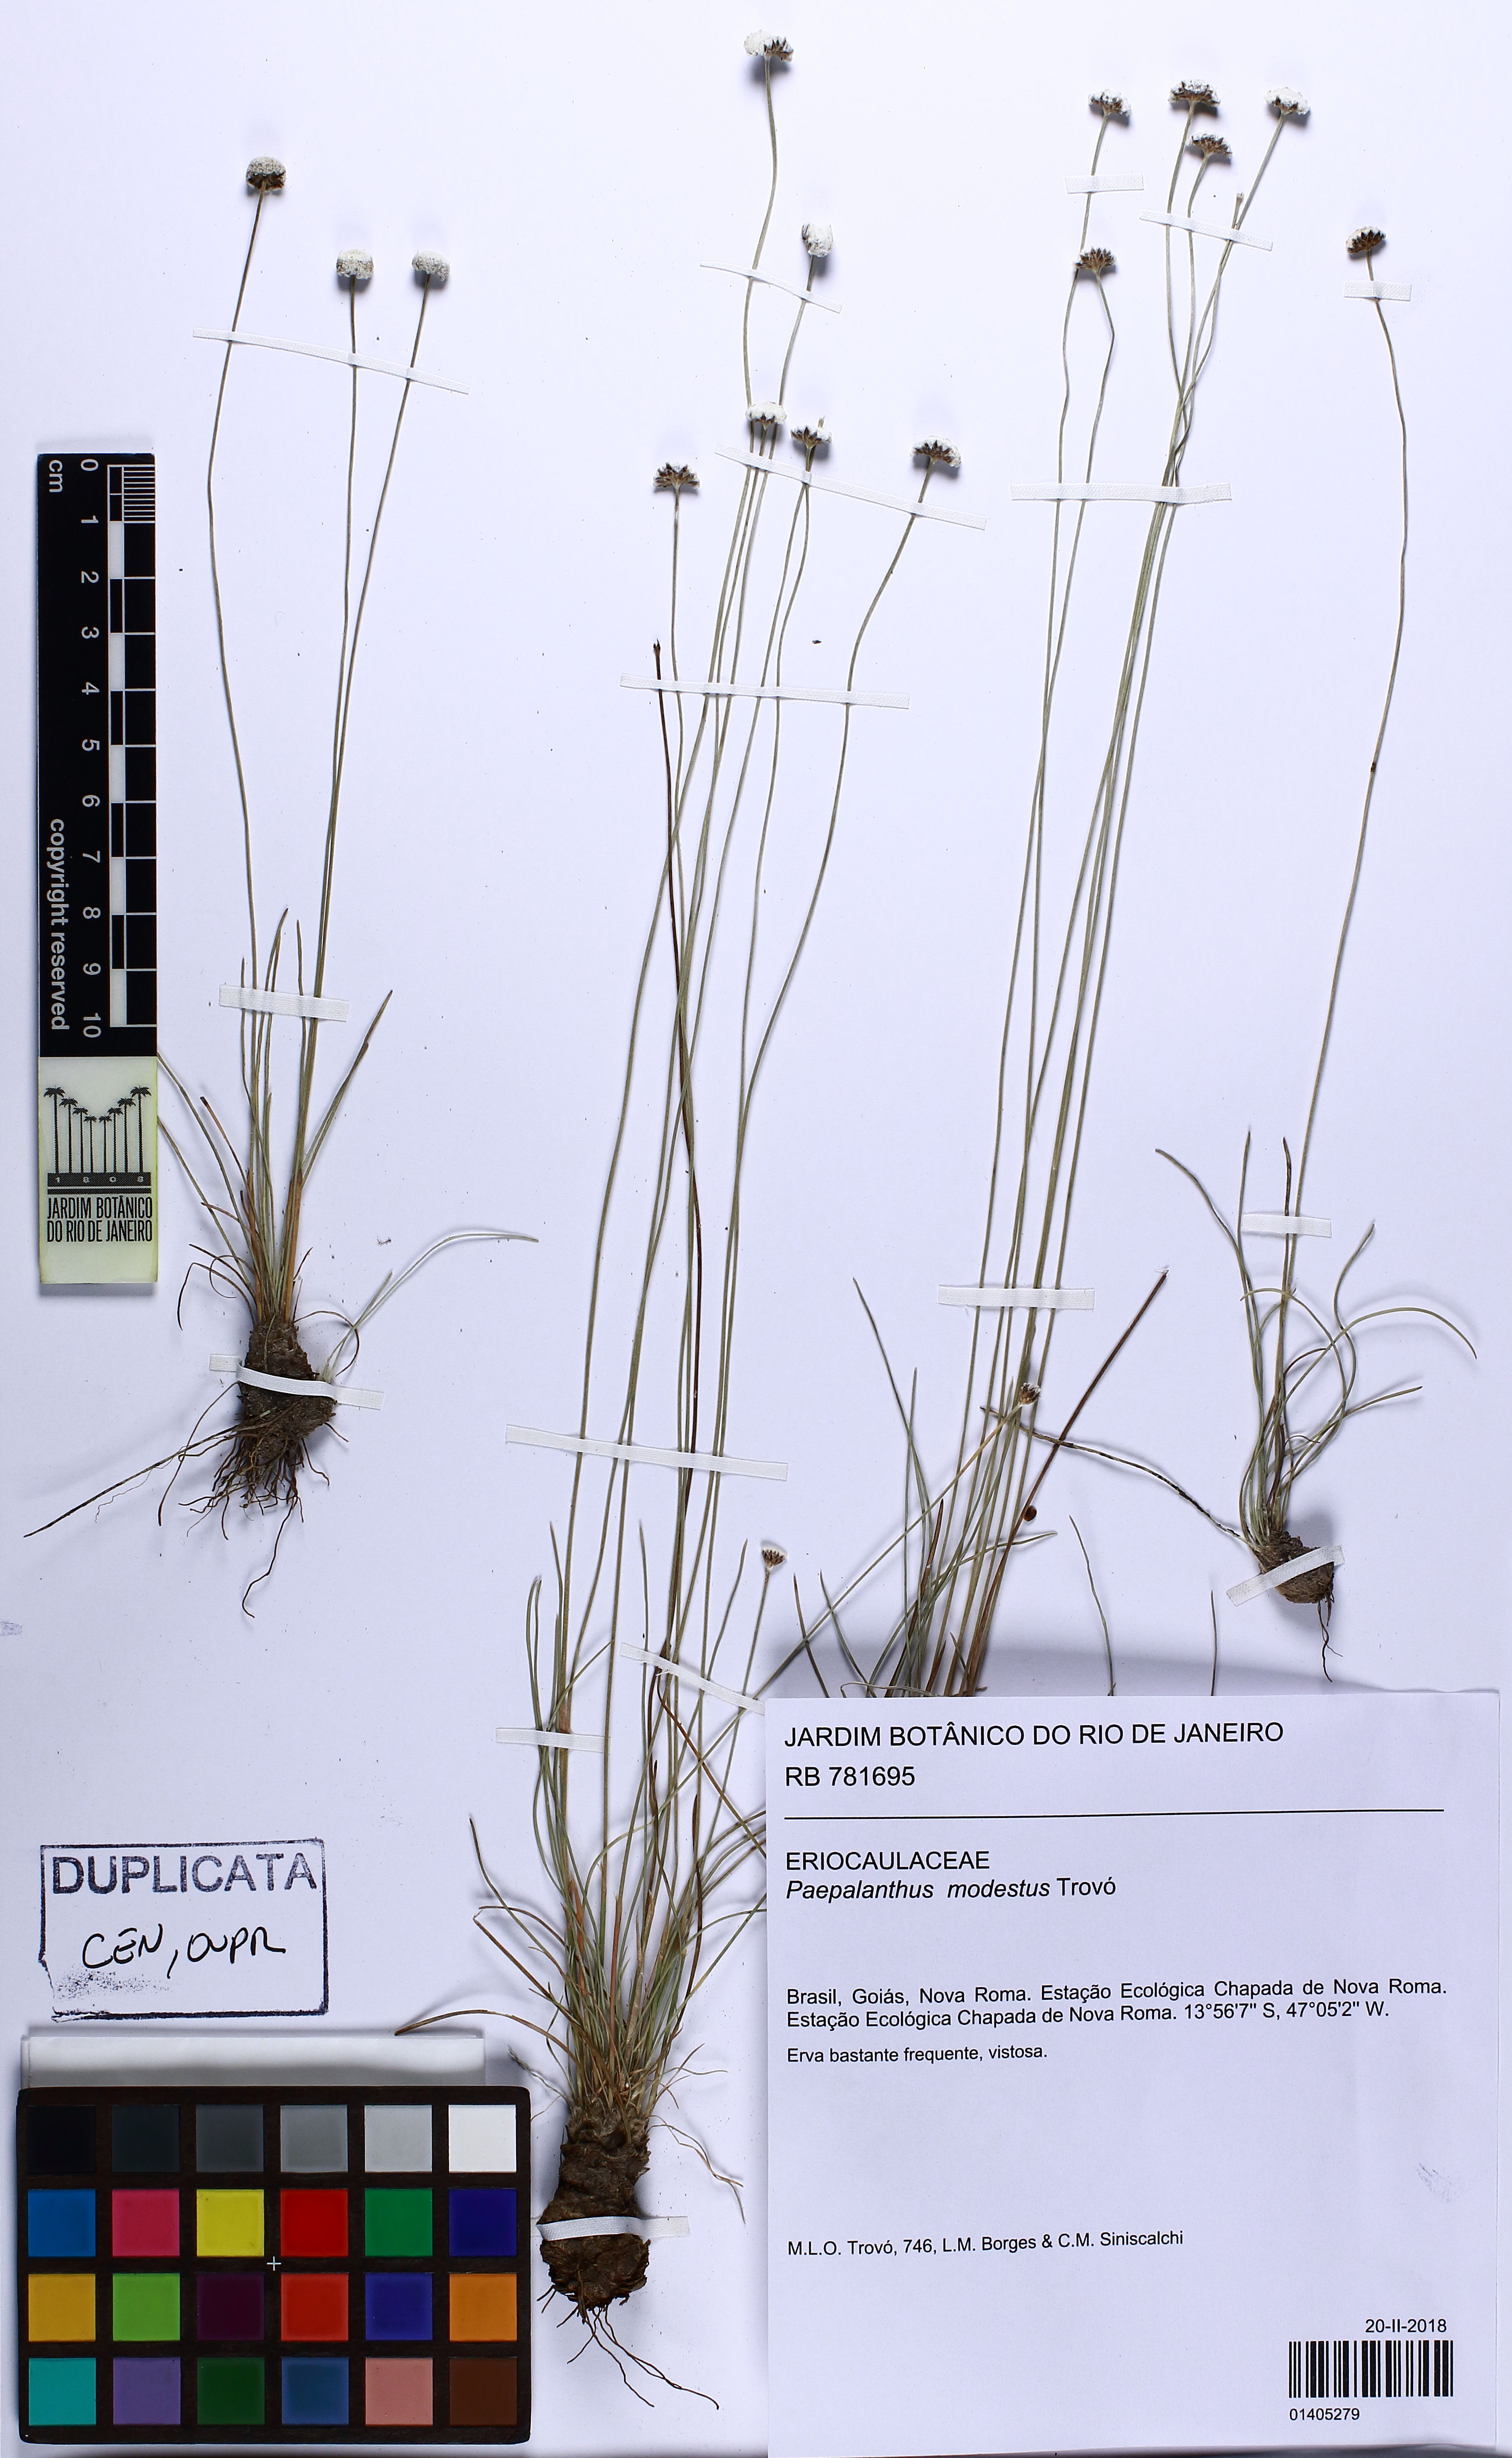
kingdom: Plantae
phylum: Tracheophyta
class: Liliopsida
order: Poales
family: Eriocaulaceae
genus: Paepalanthus
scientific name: Paepalanthus modestus
